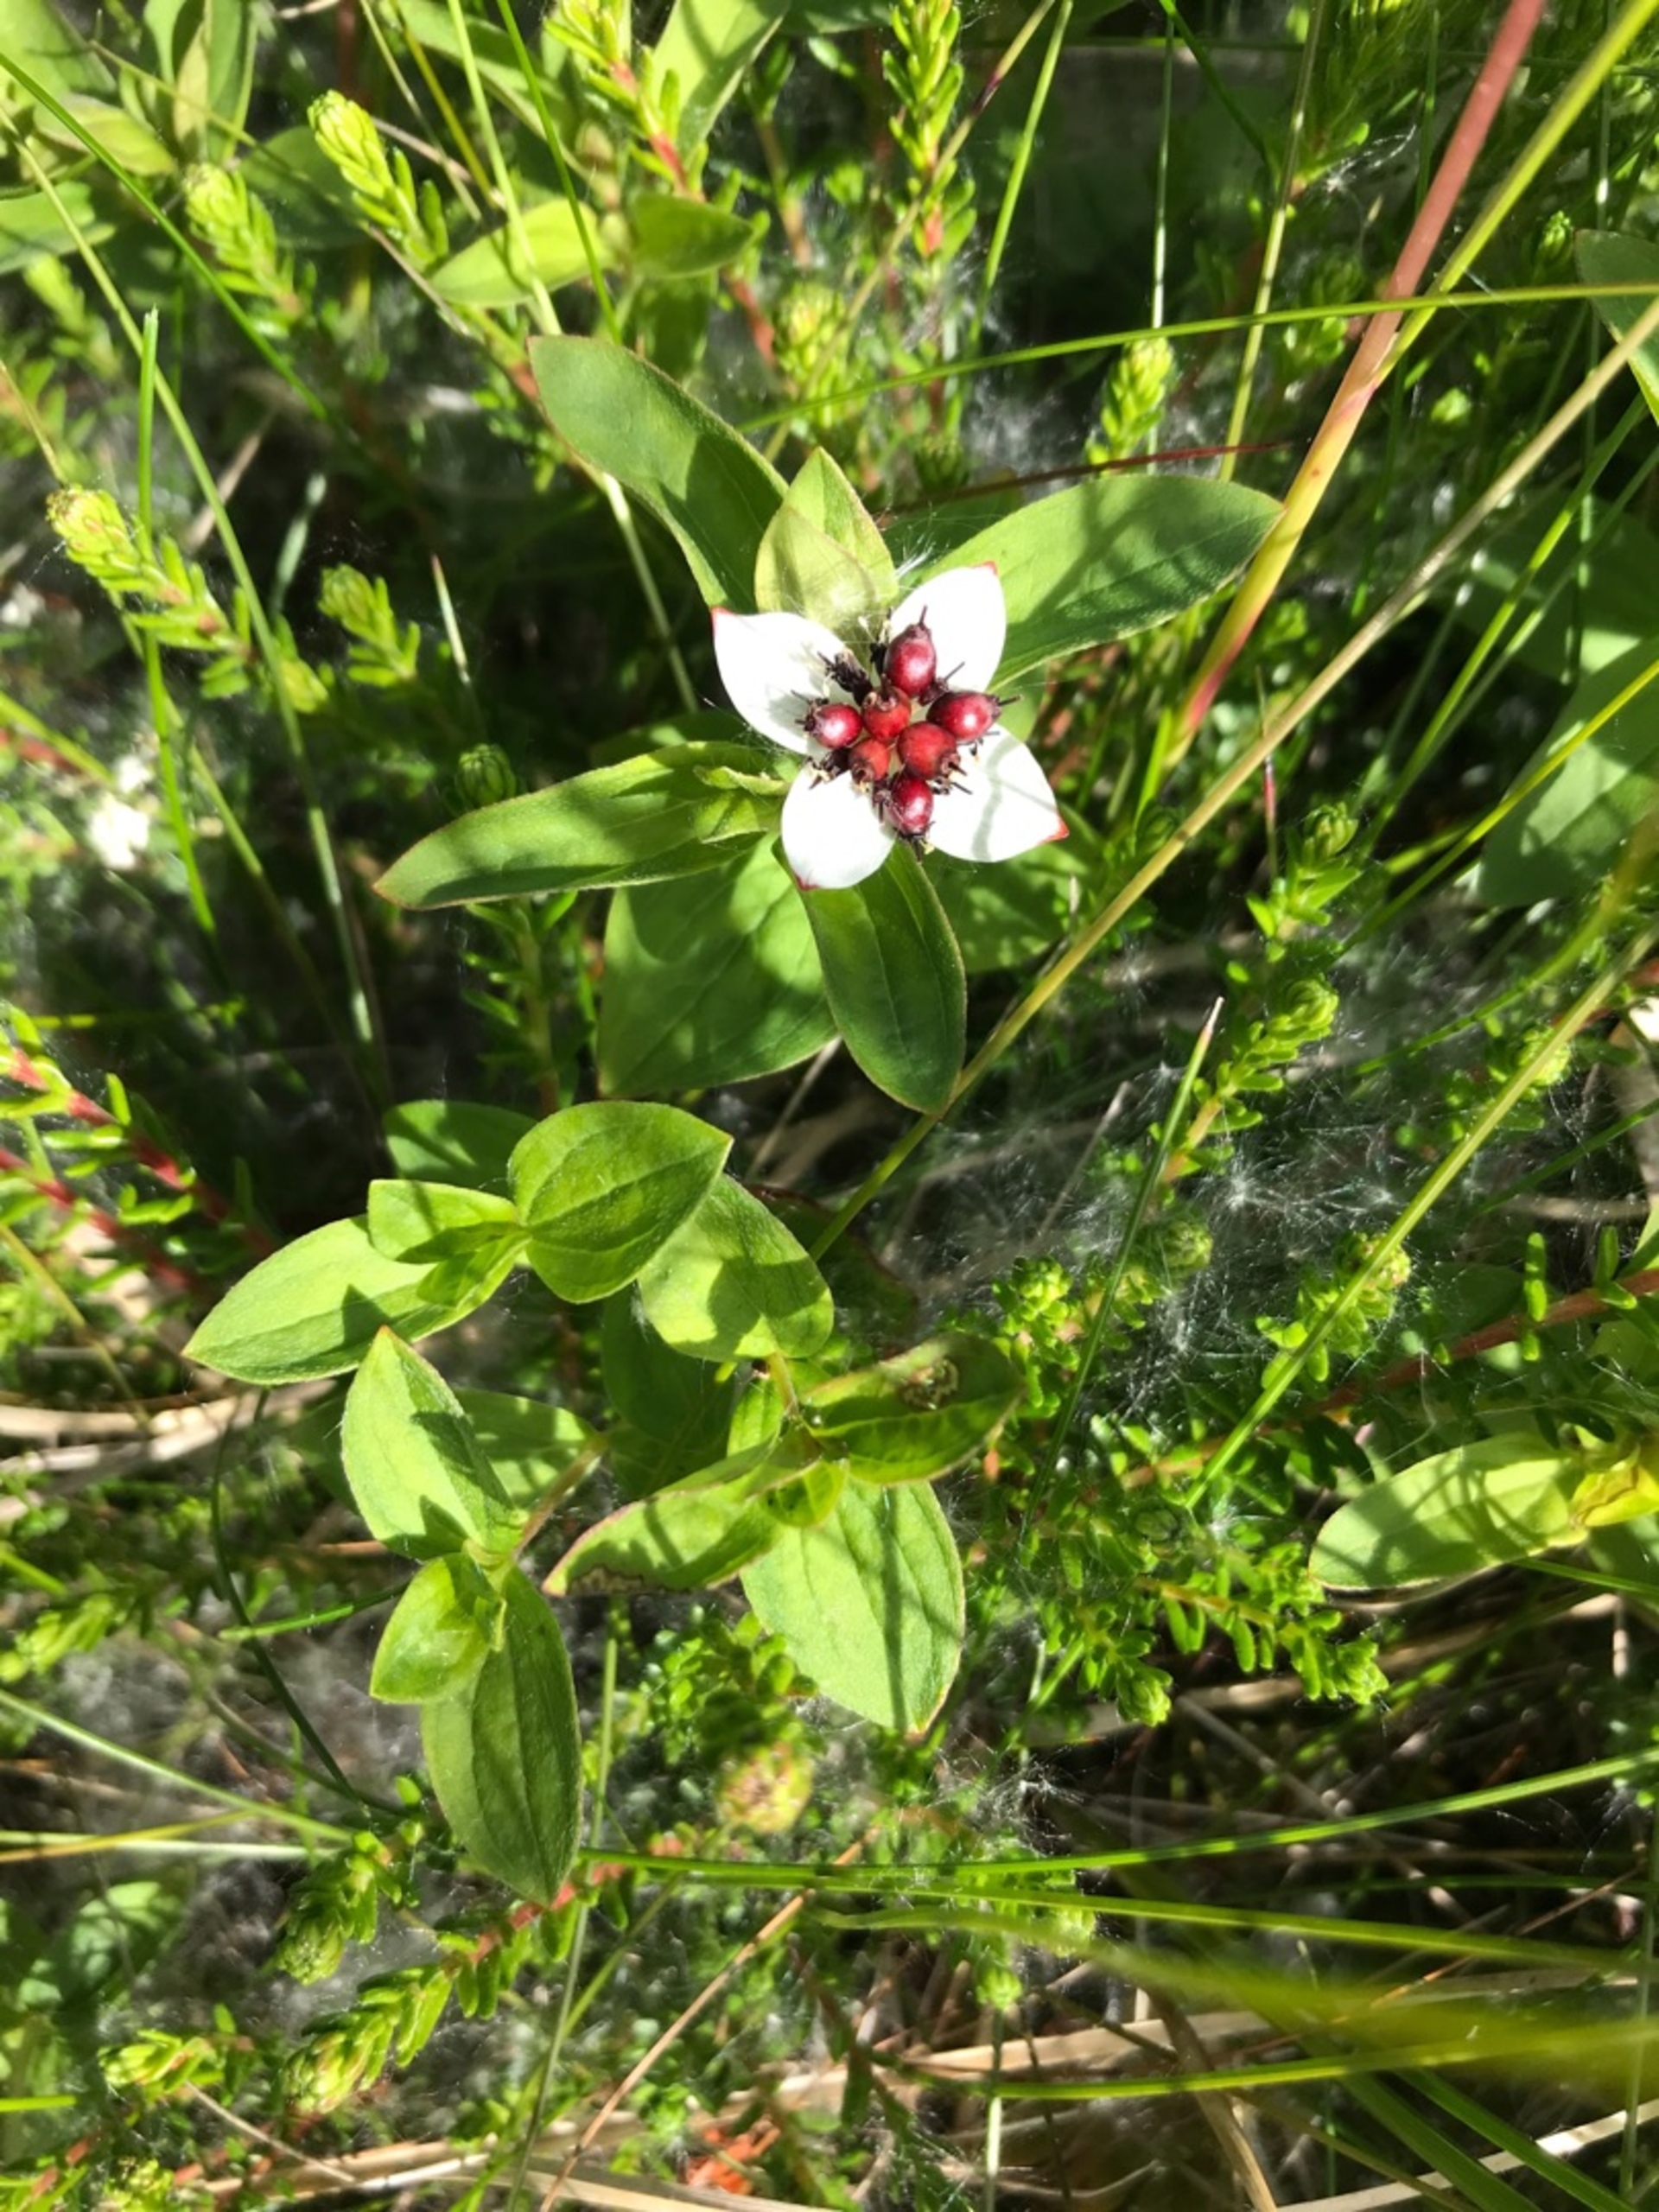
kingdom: Plantae
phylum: Tracheophyta
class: Magnoliopsida
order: Cornales
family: Cornaceae
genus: Cornus
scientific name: Cornus suecica
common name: Hønsebær
